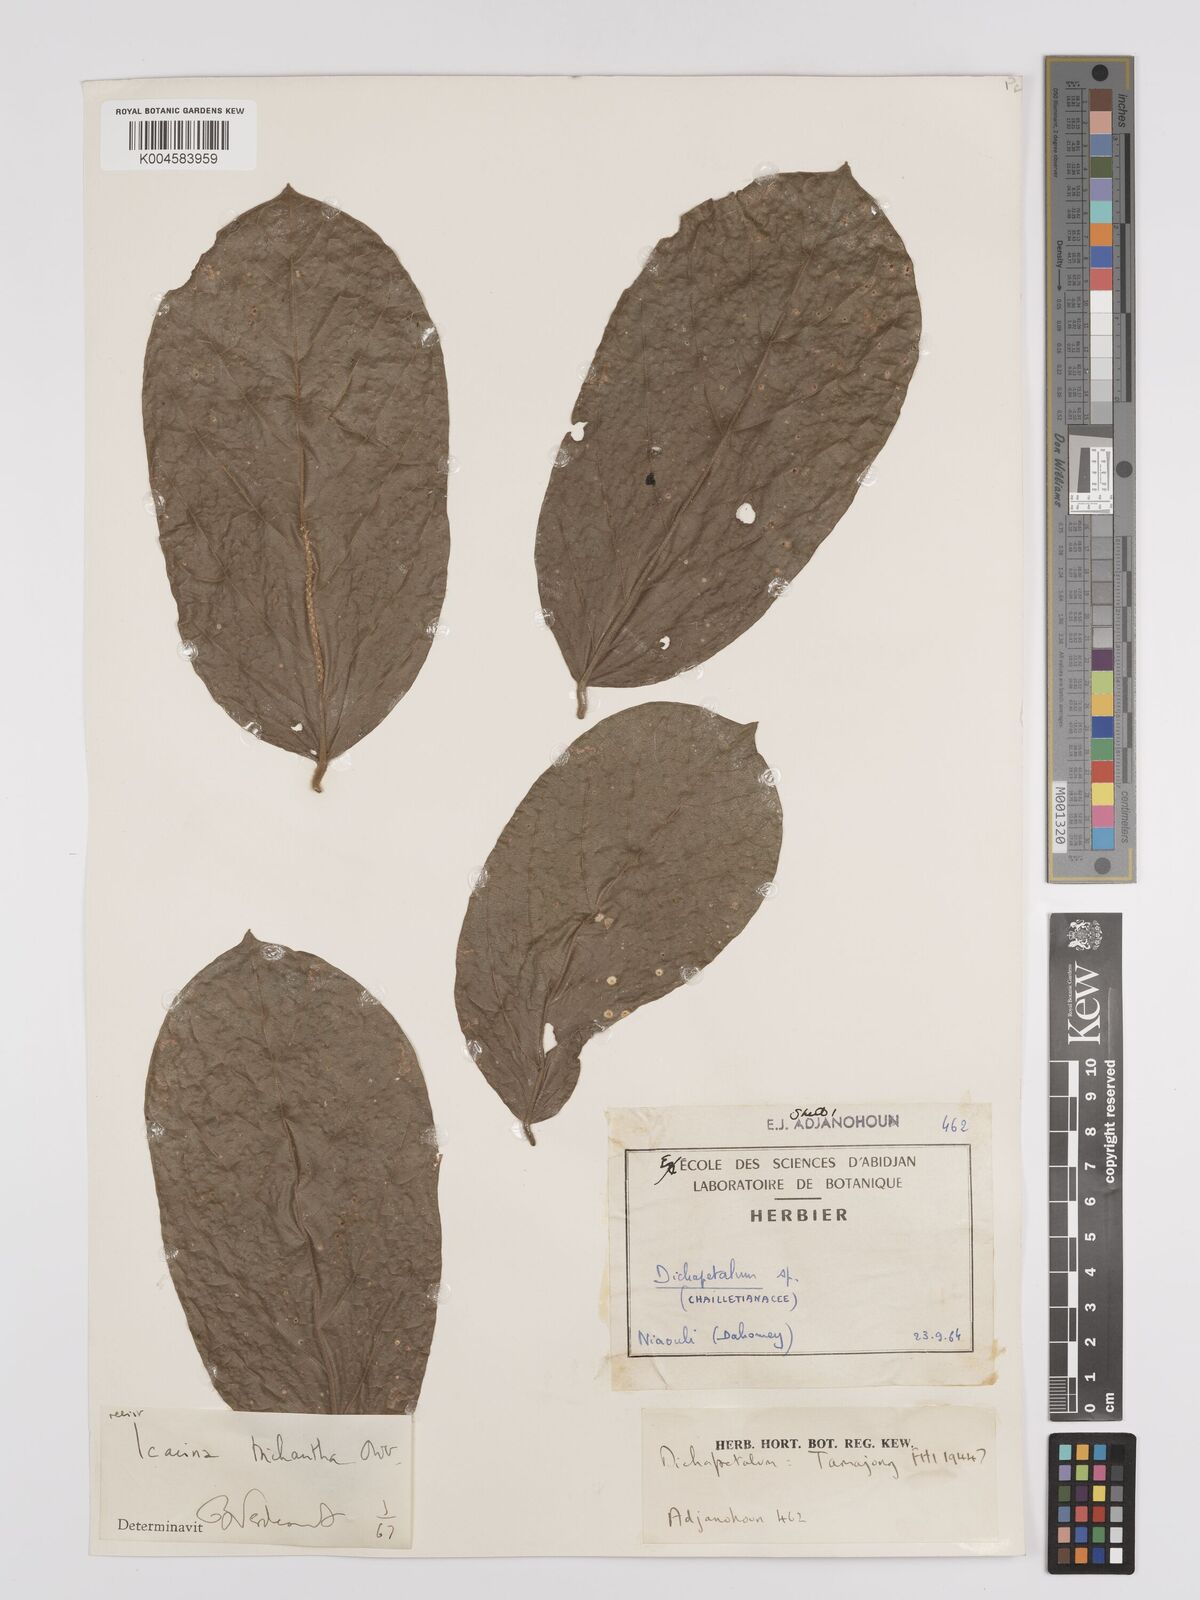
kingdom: Plantae
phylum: Tracheophyta
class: Magnoliopsida
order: Icacinales
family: Icacinaceae
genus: Icacina
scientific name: Icacina trichantha
